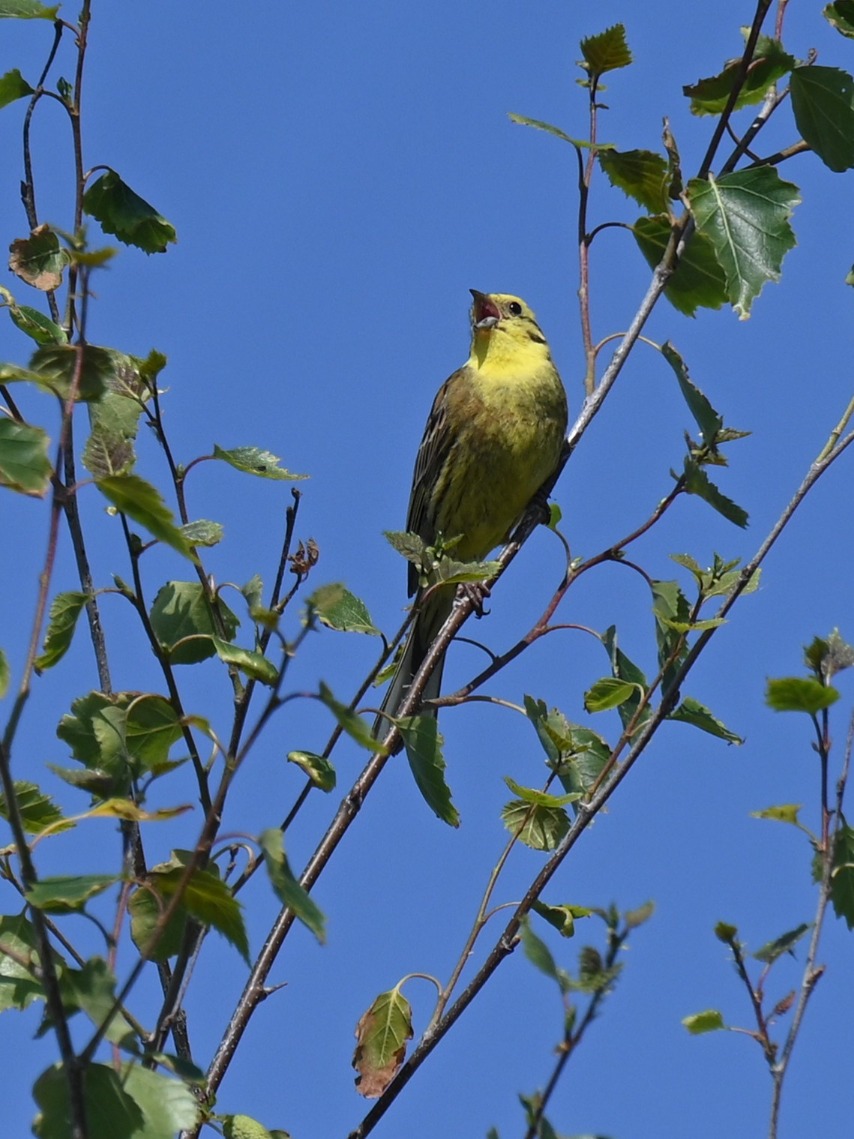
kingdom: Animalia
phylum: Chordata
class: Aves
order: Passeriformes
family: Emberizidae
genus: Emberiza
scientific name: Emberiza citrinella
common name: Gulspurv
